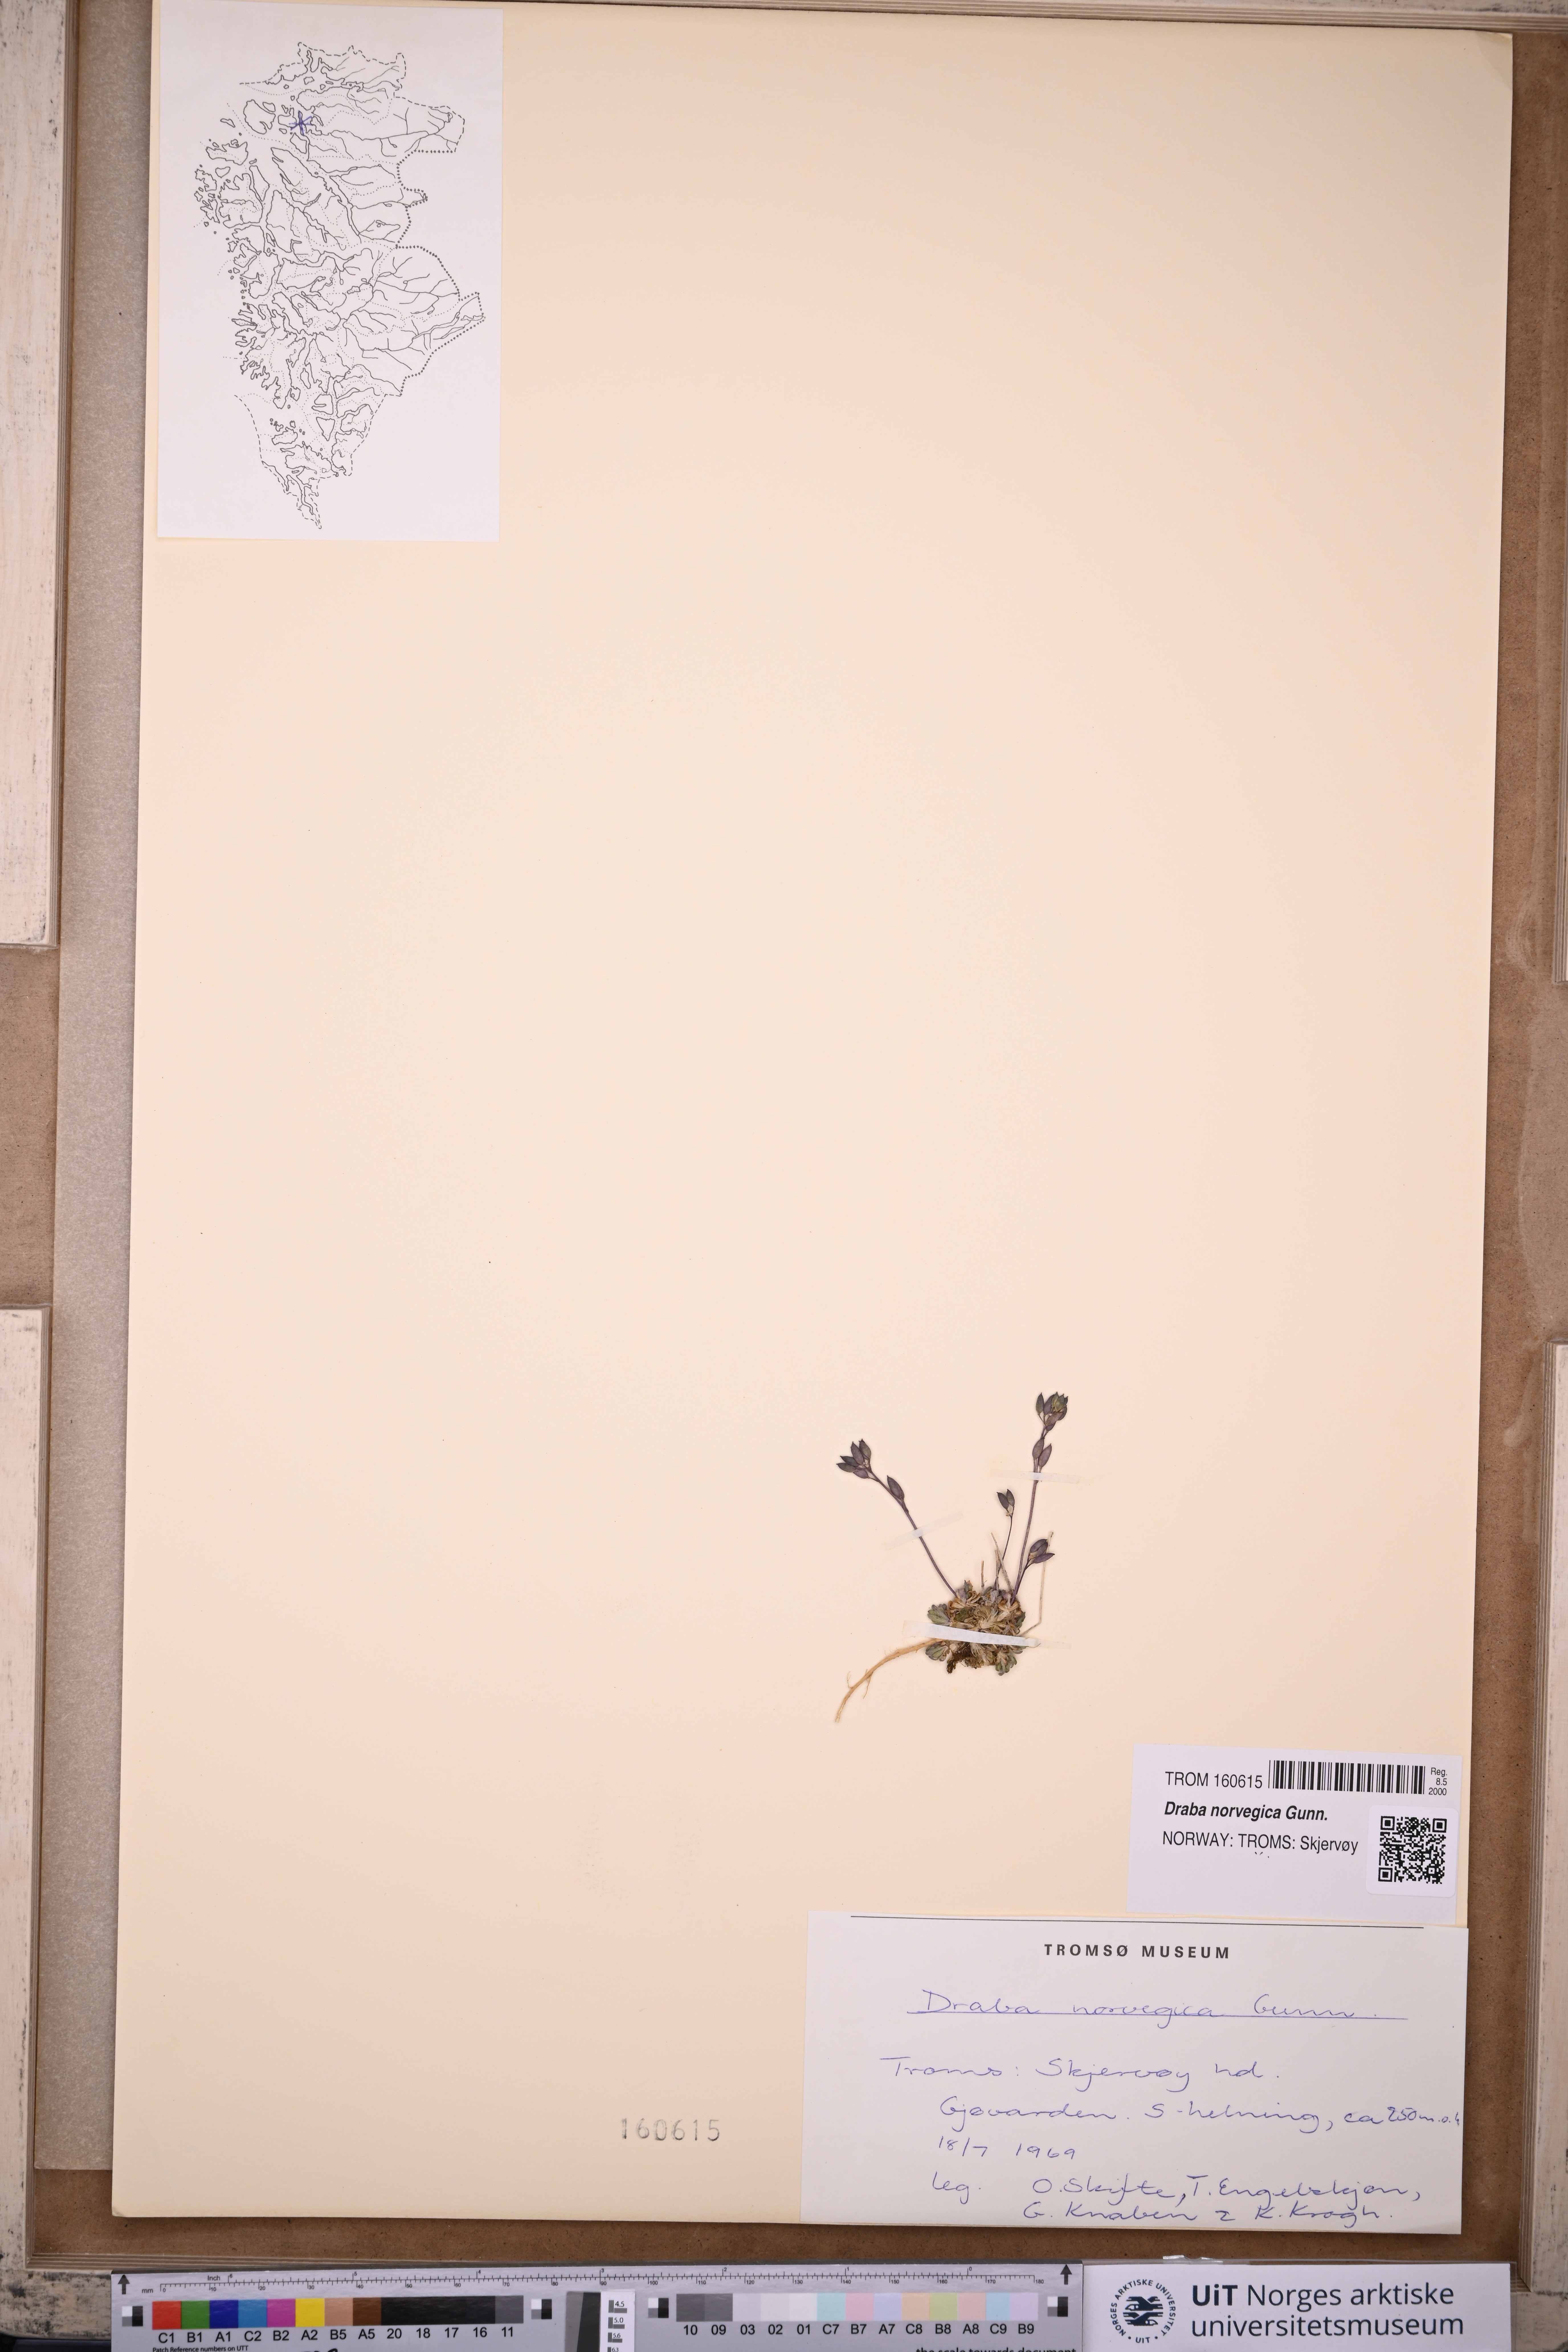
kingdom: Plantae
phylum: Tracheophyta
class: Magnoliopsida
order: Brassicales
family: Brassicaceae
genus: Draba
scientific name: Draba norvegica
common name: Rock whitlowgrass
